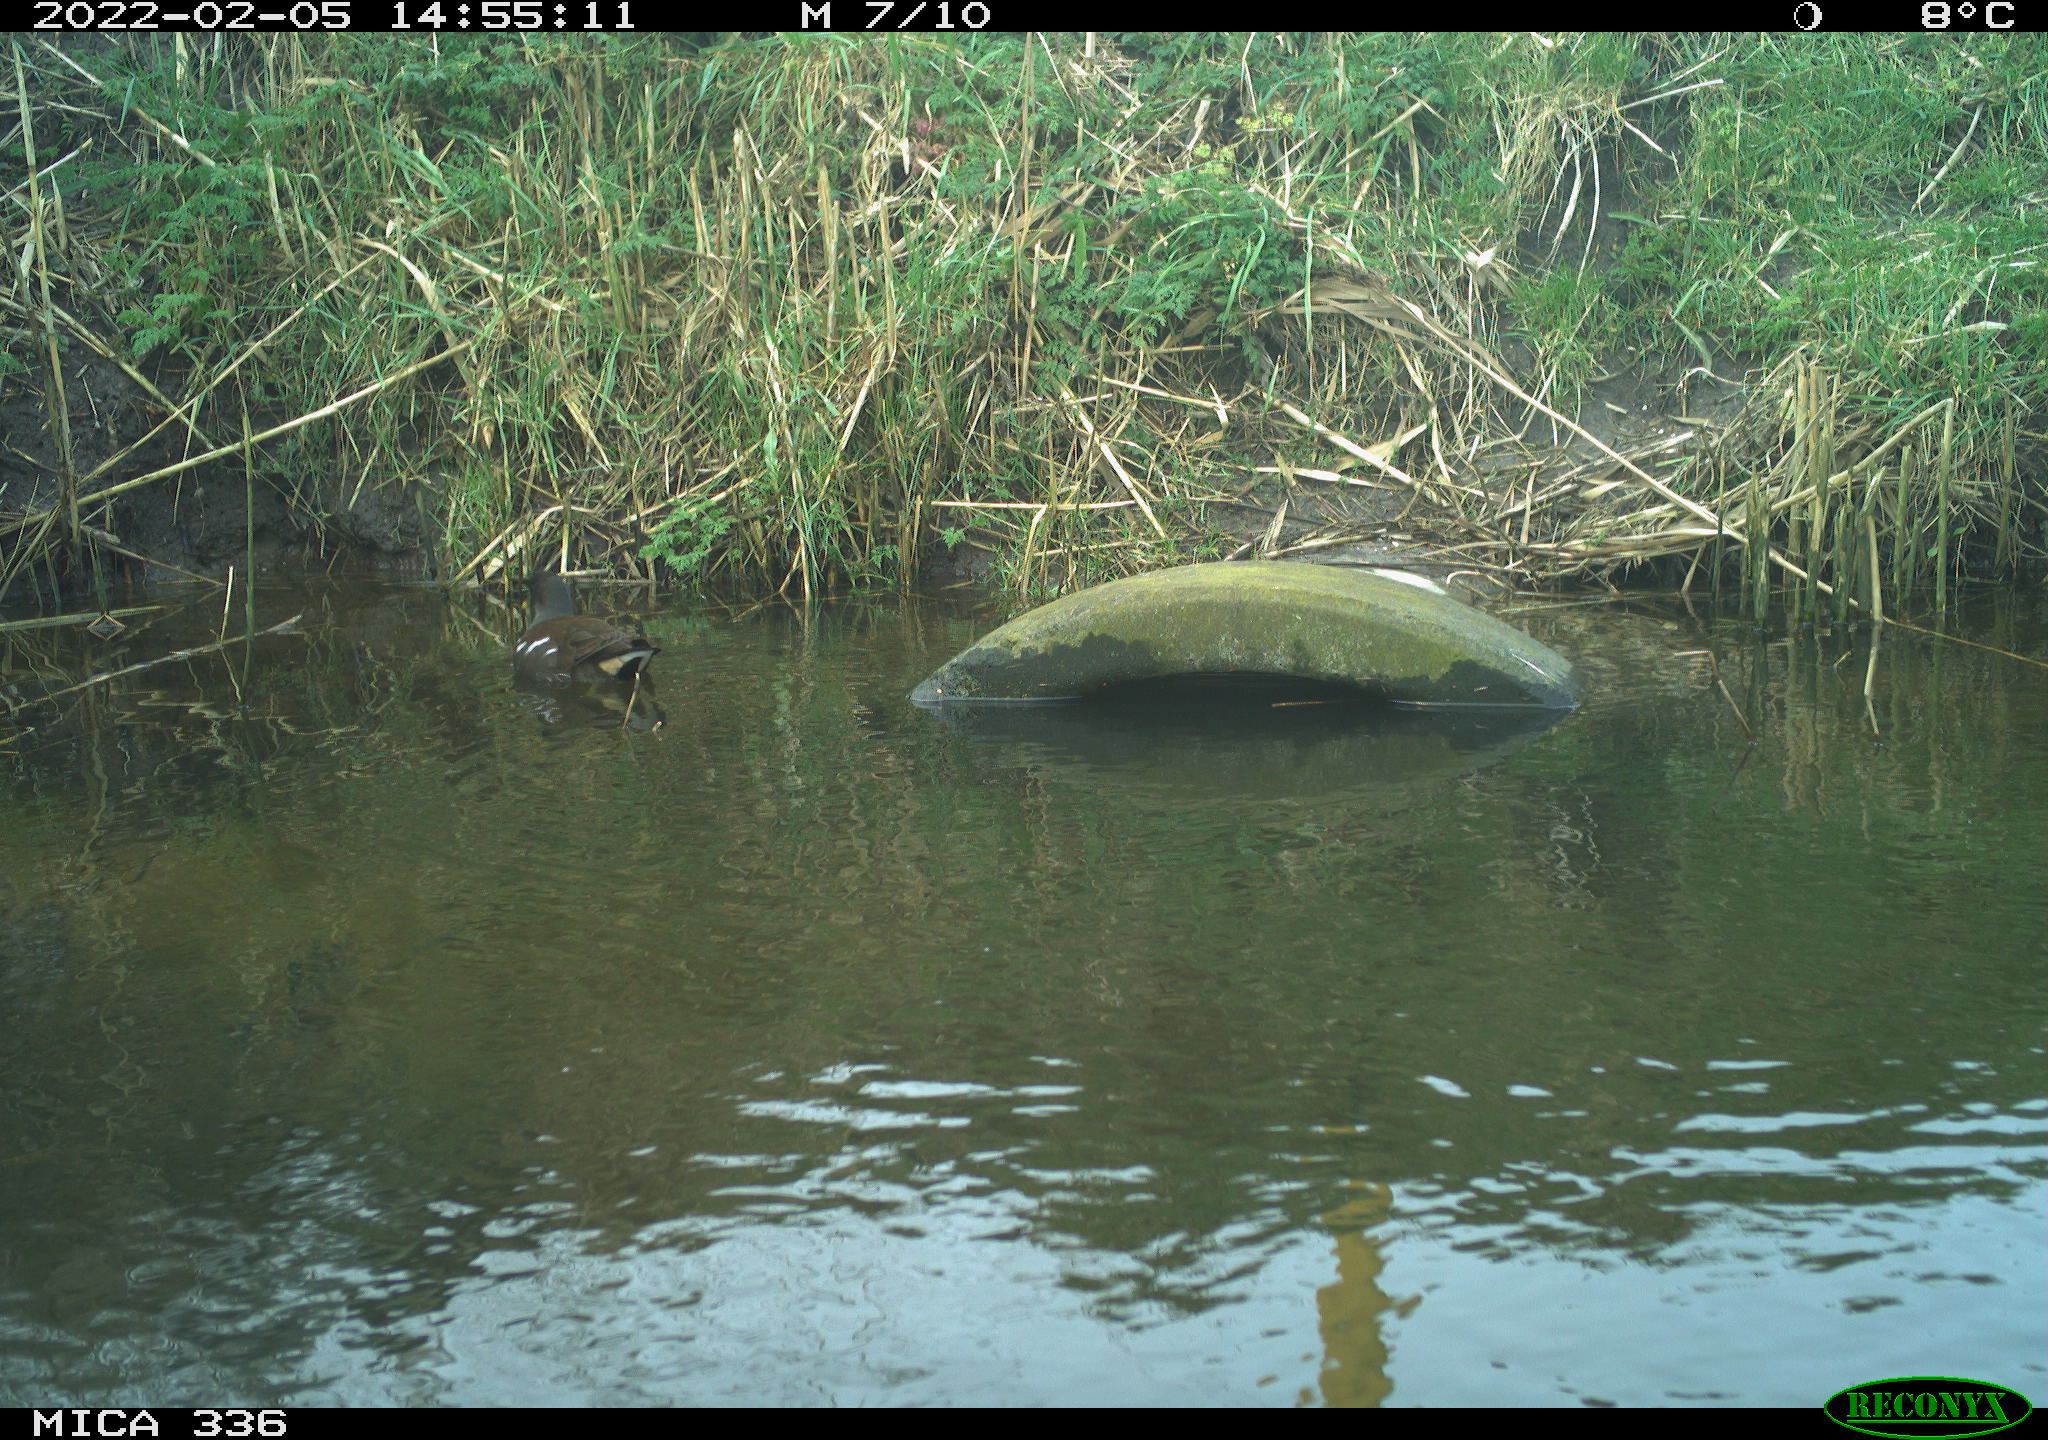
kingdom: Animalia
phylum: Chordata
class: Aves
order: Gruiformes
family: Rallidae
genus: Gallinula
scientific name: Gallinula chloropus
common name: Common moorhen
